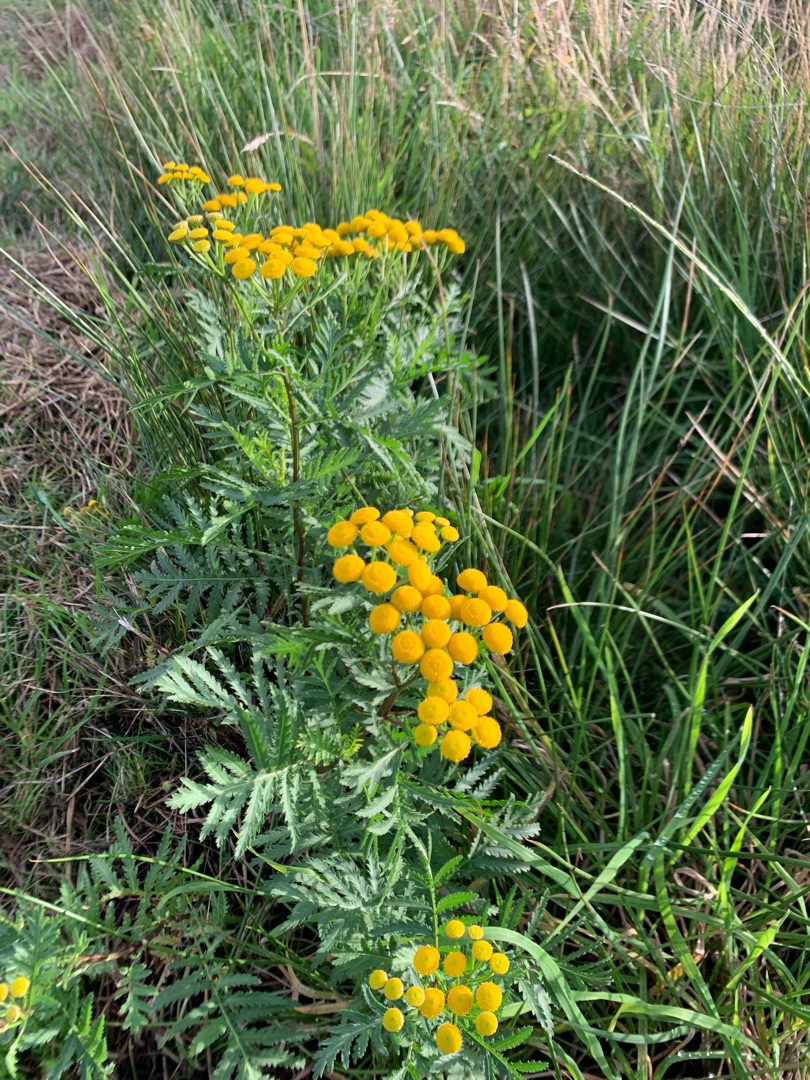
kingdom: Plantae
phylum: Tracheophyta
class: Magnoliopsida
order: Asterales
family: Asteraceae
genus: Tanacetum
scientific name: Tanacetum vulgare
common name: Rejnfan
